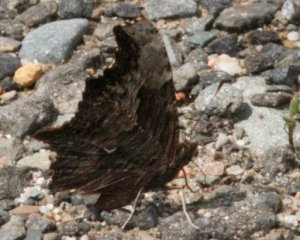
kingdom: Animalia
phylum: Arthropoda
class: Insecta
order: Lepidoptera
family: Nymphalidae
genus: Polygonia
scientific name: Polygonia progne
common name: Gray Comma
